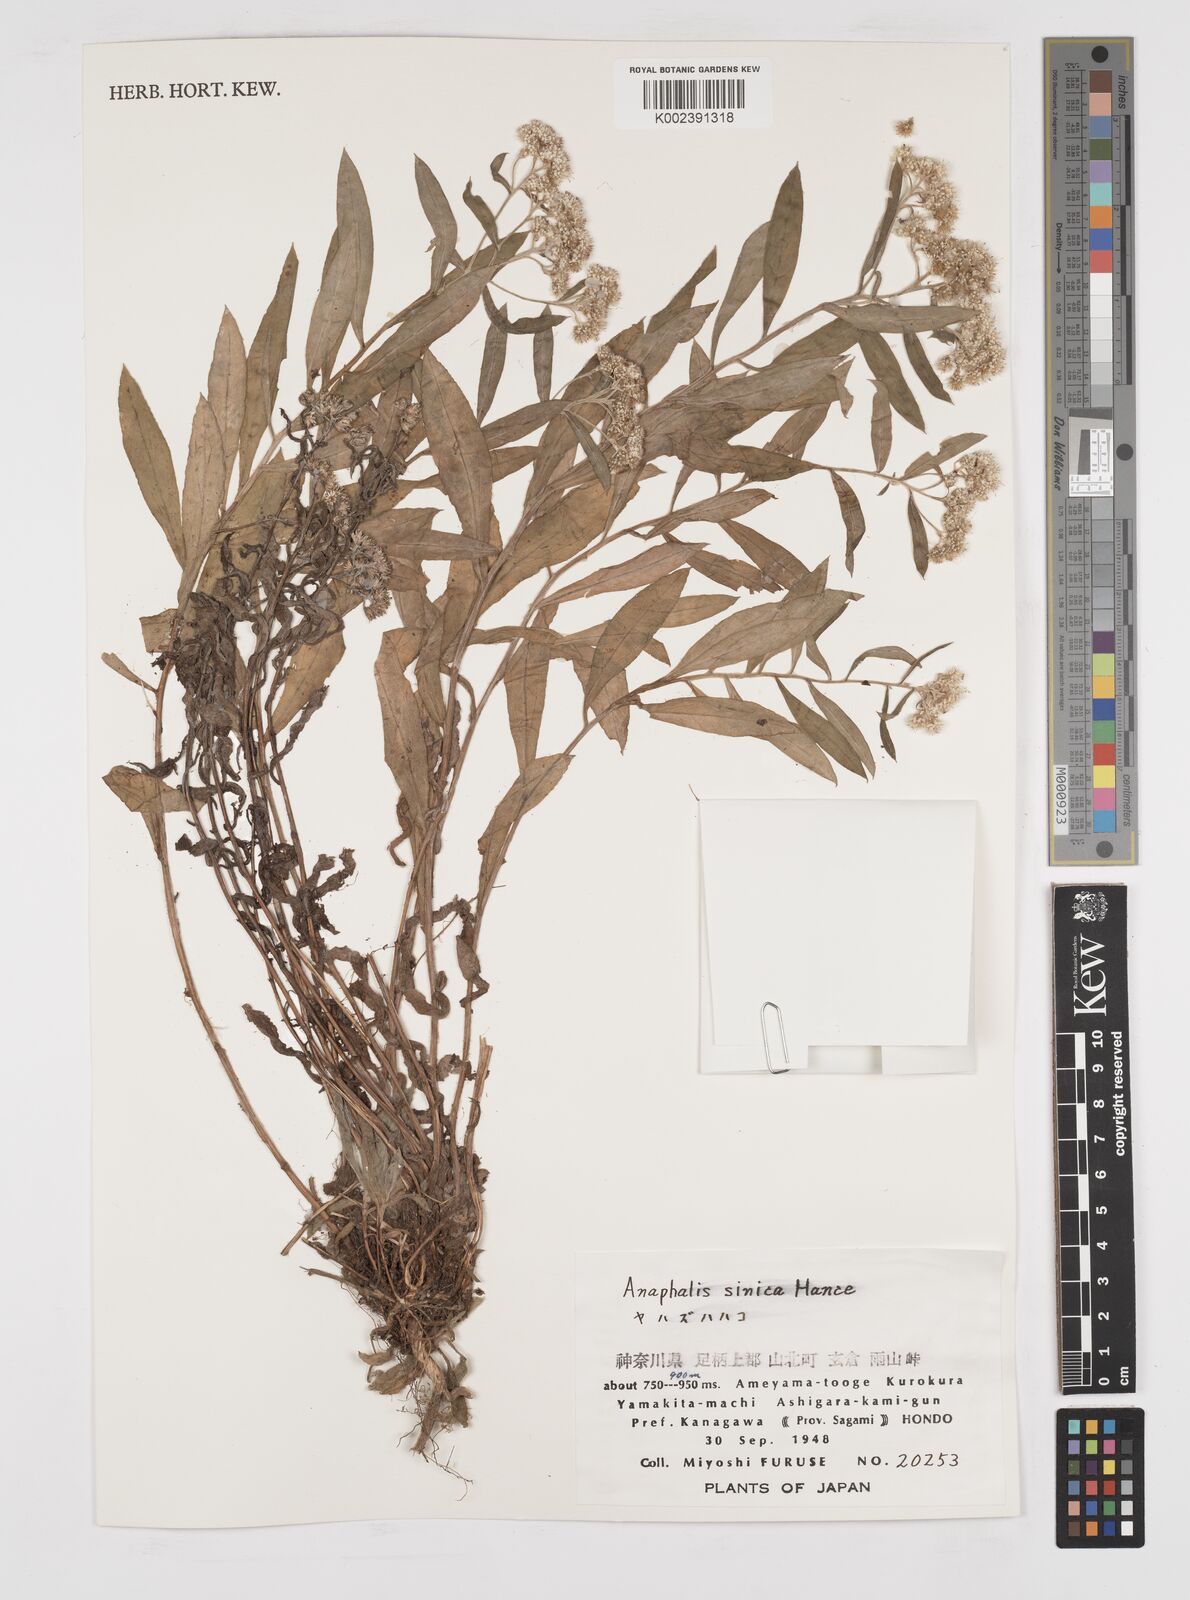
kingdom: Plantae
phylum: Tracheophyta
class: Magnoliopsida
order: Asterales
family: Asteraceae
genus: Anaphalis
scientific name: Anaphalis sinica
